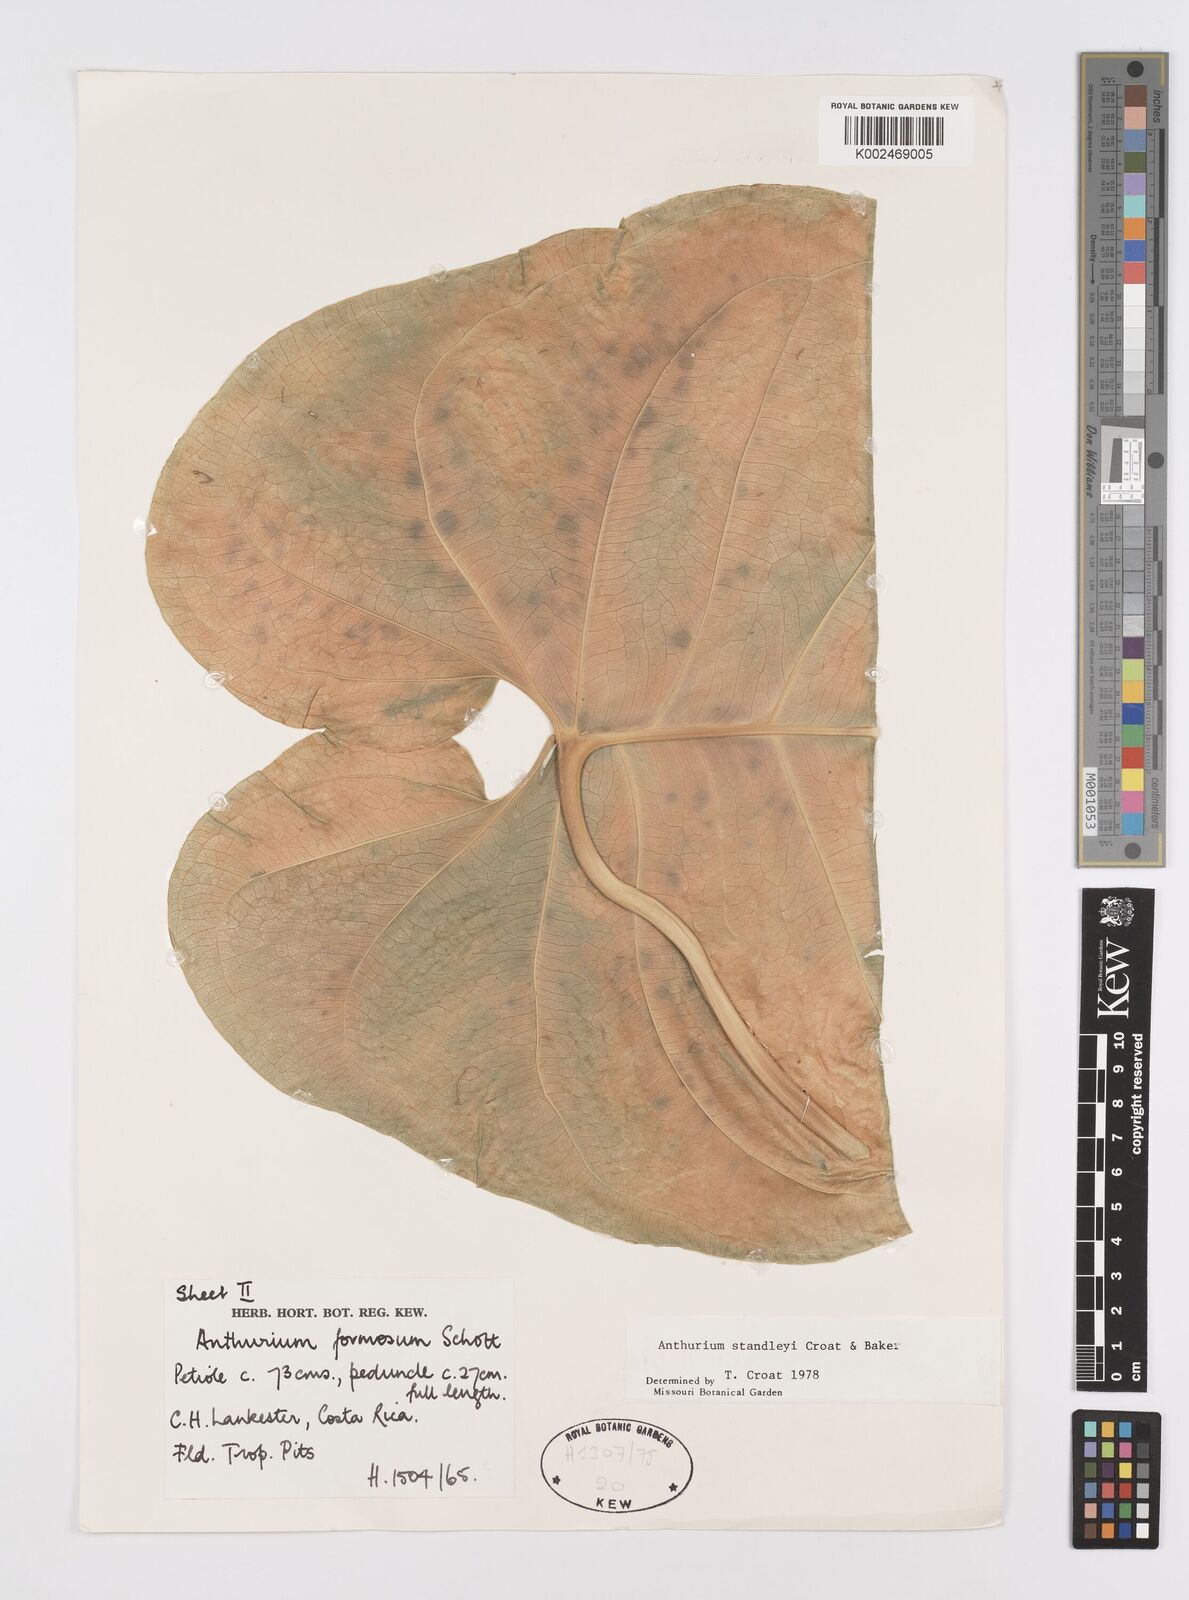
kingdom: Plantae
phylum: Tracheophyta
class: Liliopsida
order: Alismatales
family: Araceae
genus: Anthurium
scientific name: Anthurium standleyi
